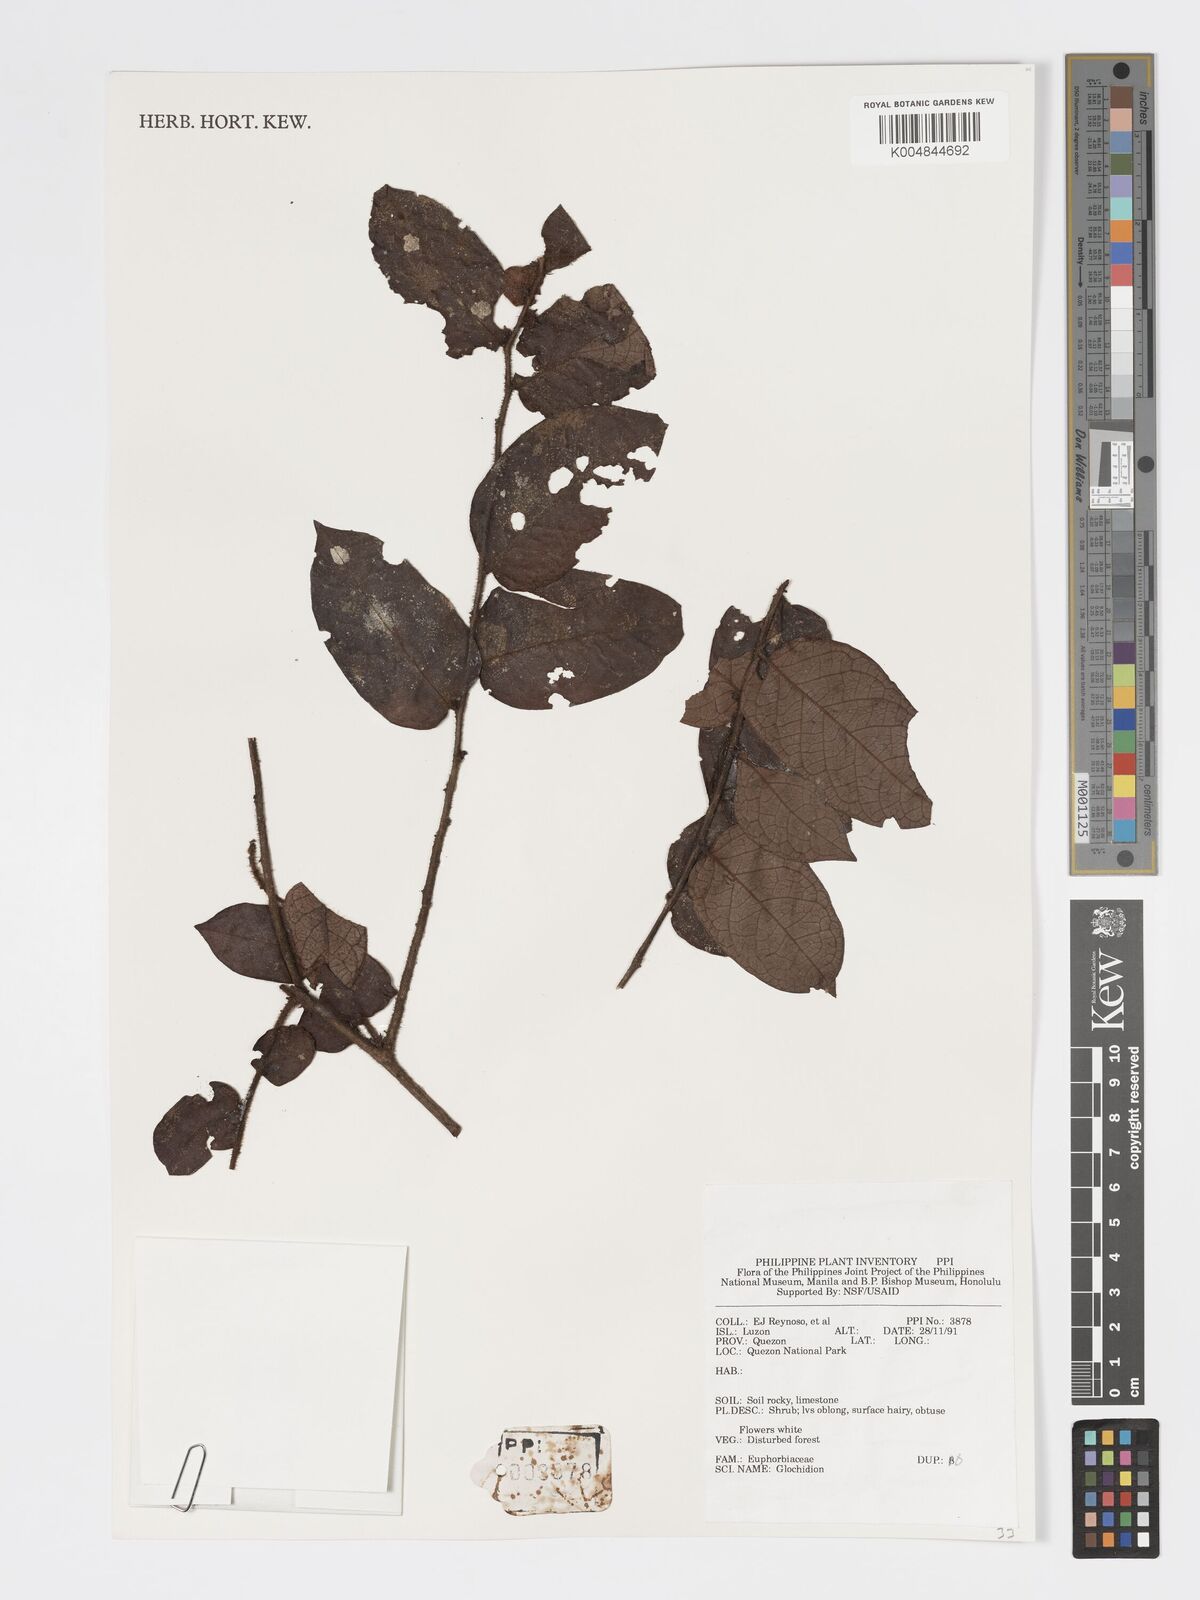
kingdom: Plantae
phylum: Tracheophyta
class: Magnoliopsida
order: Malpighiales
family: Phyllanthaceae
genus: Glochidion
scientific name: Glochidion
